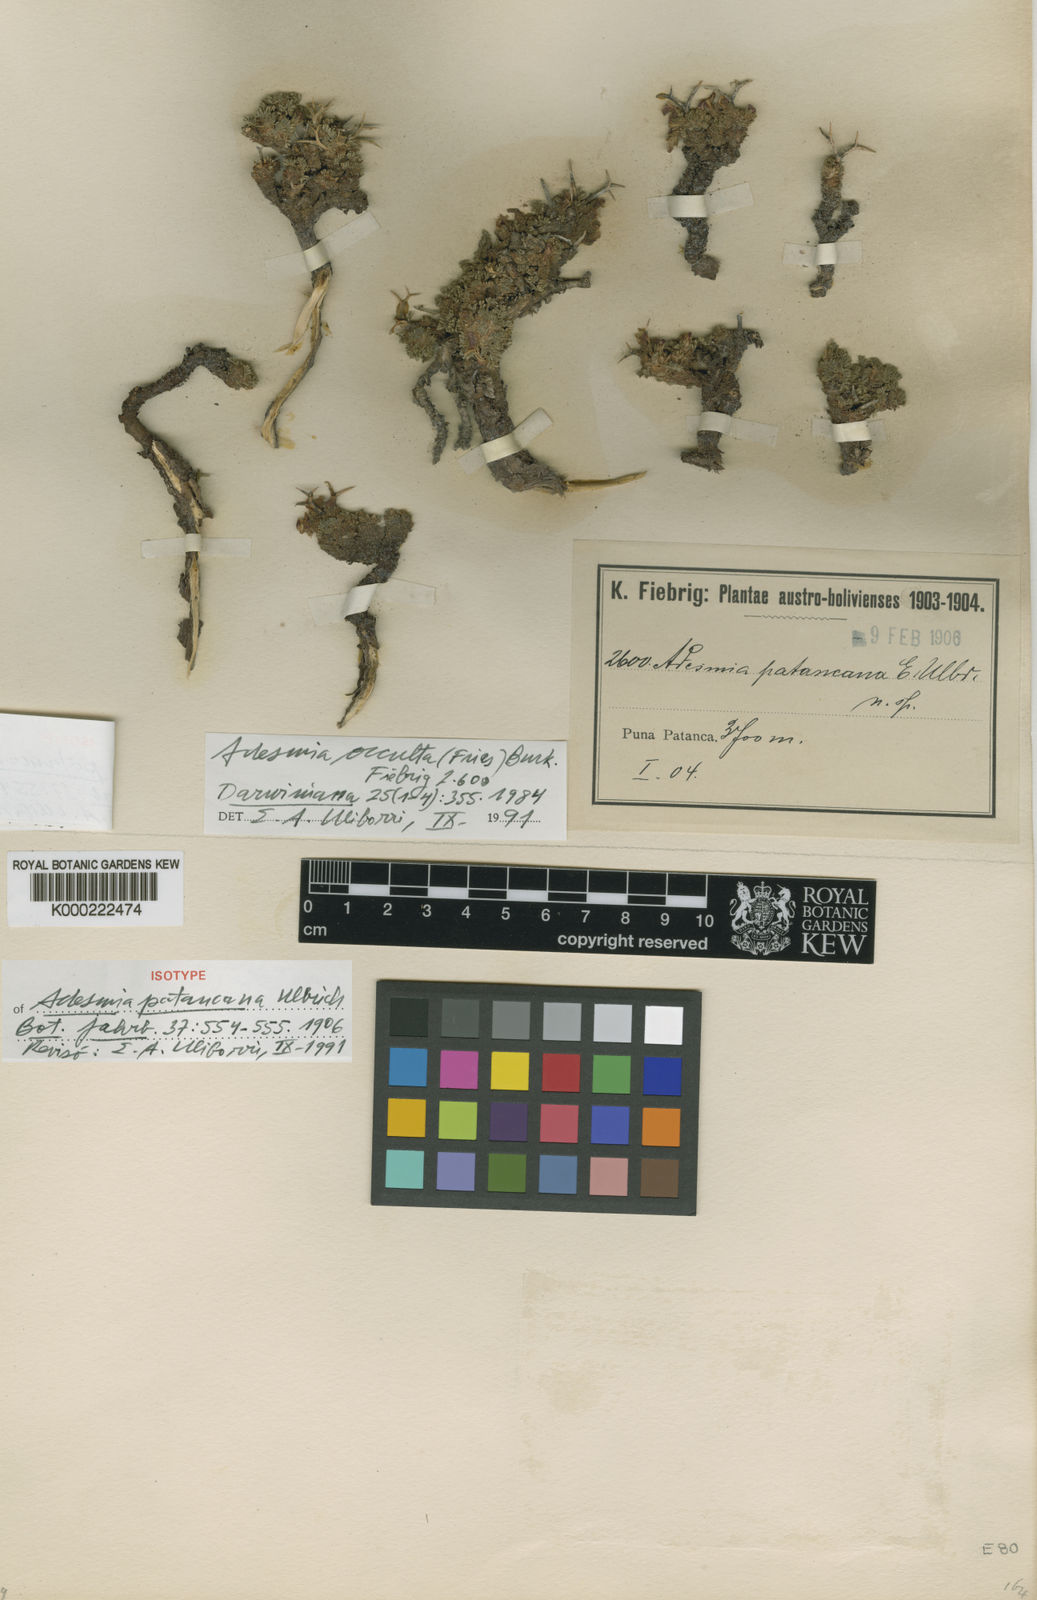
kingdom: Plantae
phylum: Tracheophyta
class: Magnoliopsida
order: Fabales
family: Fabaceae
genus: Adesmia
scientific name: Adesmia occulta
